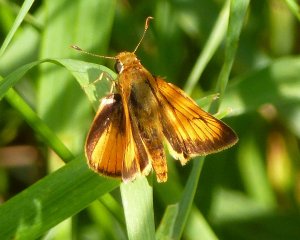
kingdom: Animalia
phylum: Arthropoda
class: Insecta
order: Lepidoptera
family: Hesperiidae
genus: Atrytone
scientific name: Atrytone delaware
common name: Delaware Skipper
